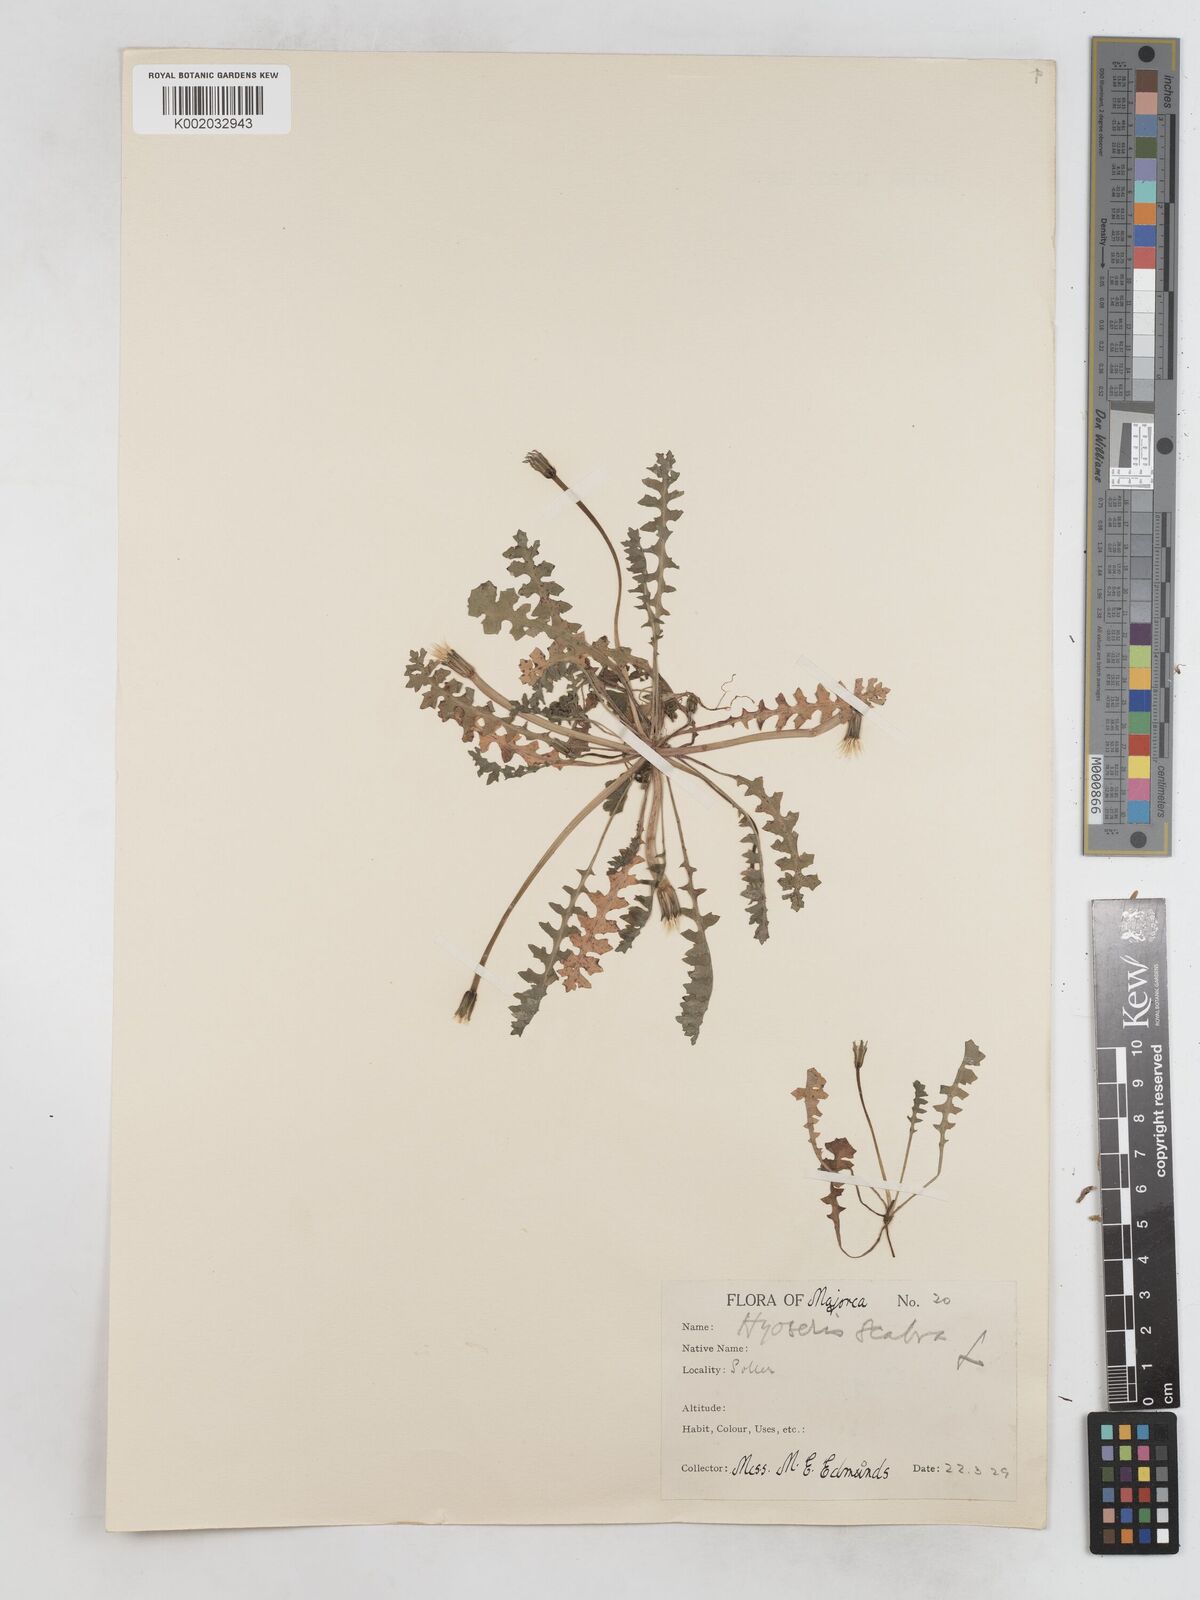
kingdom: Plantae
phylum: Tracheophyta
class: Magnoliopsida
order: Asterales
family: Asteraceae
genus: Hyoseris
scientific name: Hyoseris scabra
